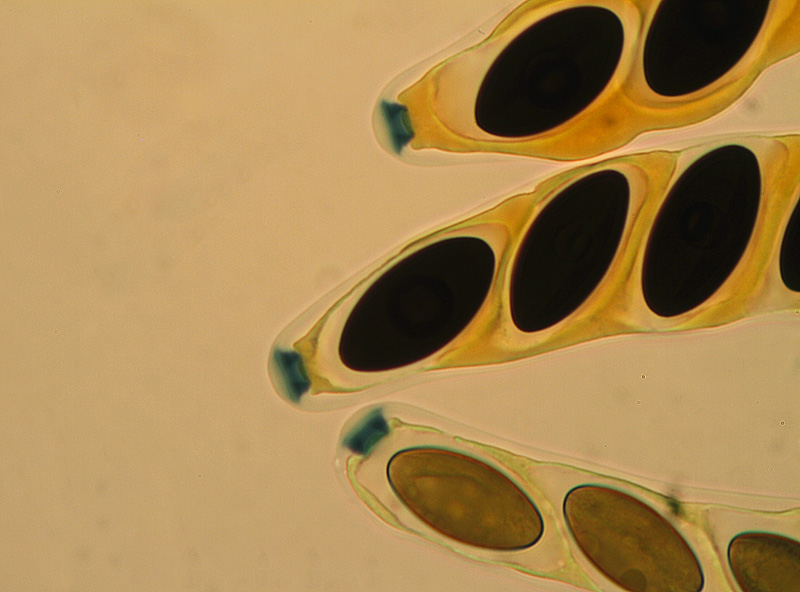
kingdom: Fungi
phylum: Ascomycota
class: Sordariomycetes
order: Xylariales
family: Xylariaceae
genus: Hypocopra
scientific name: Hypocopra ornithophila
